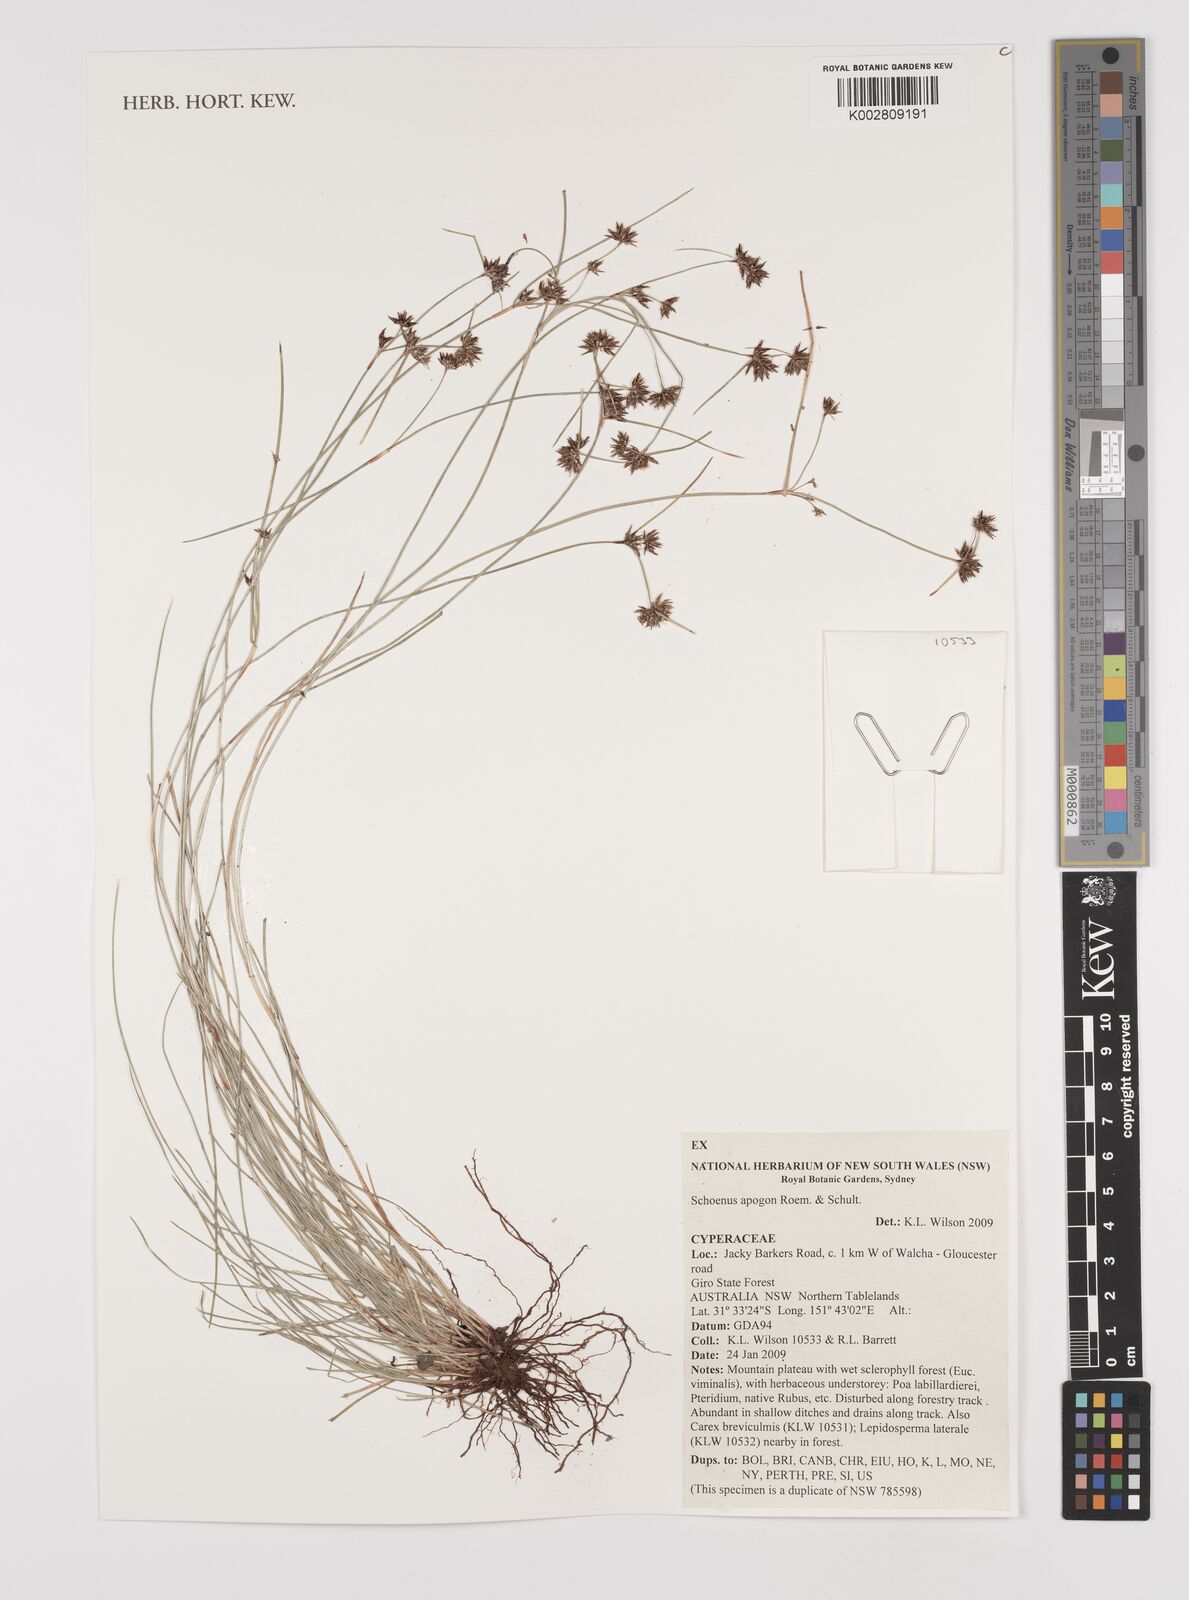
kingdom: Plantae
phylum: Tracheophyta
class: Liliopsida
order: Poales
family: Cyperaceae
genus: Schoenus
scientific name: Schoenus apogon
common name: Smooth bogrush
